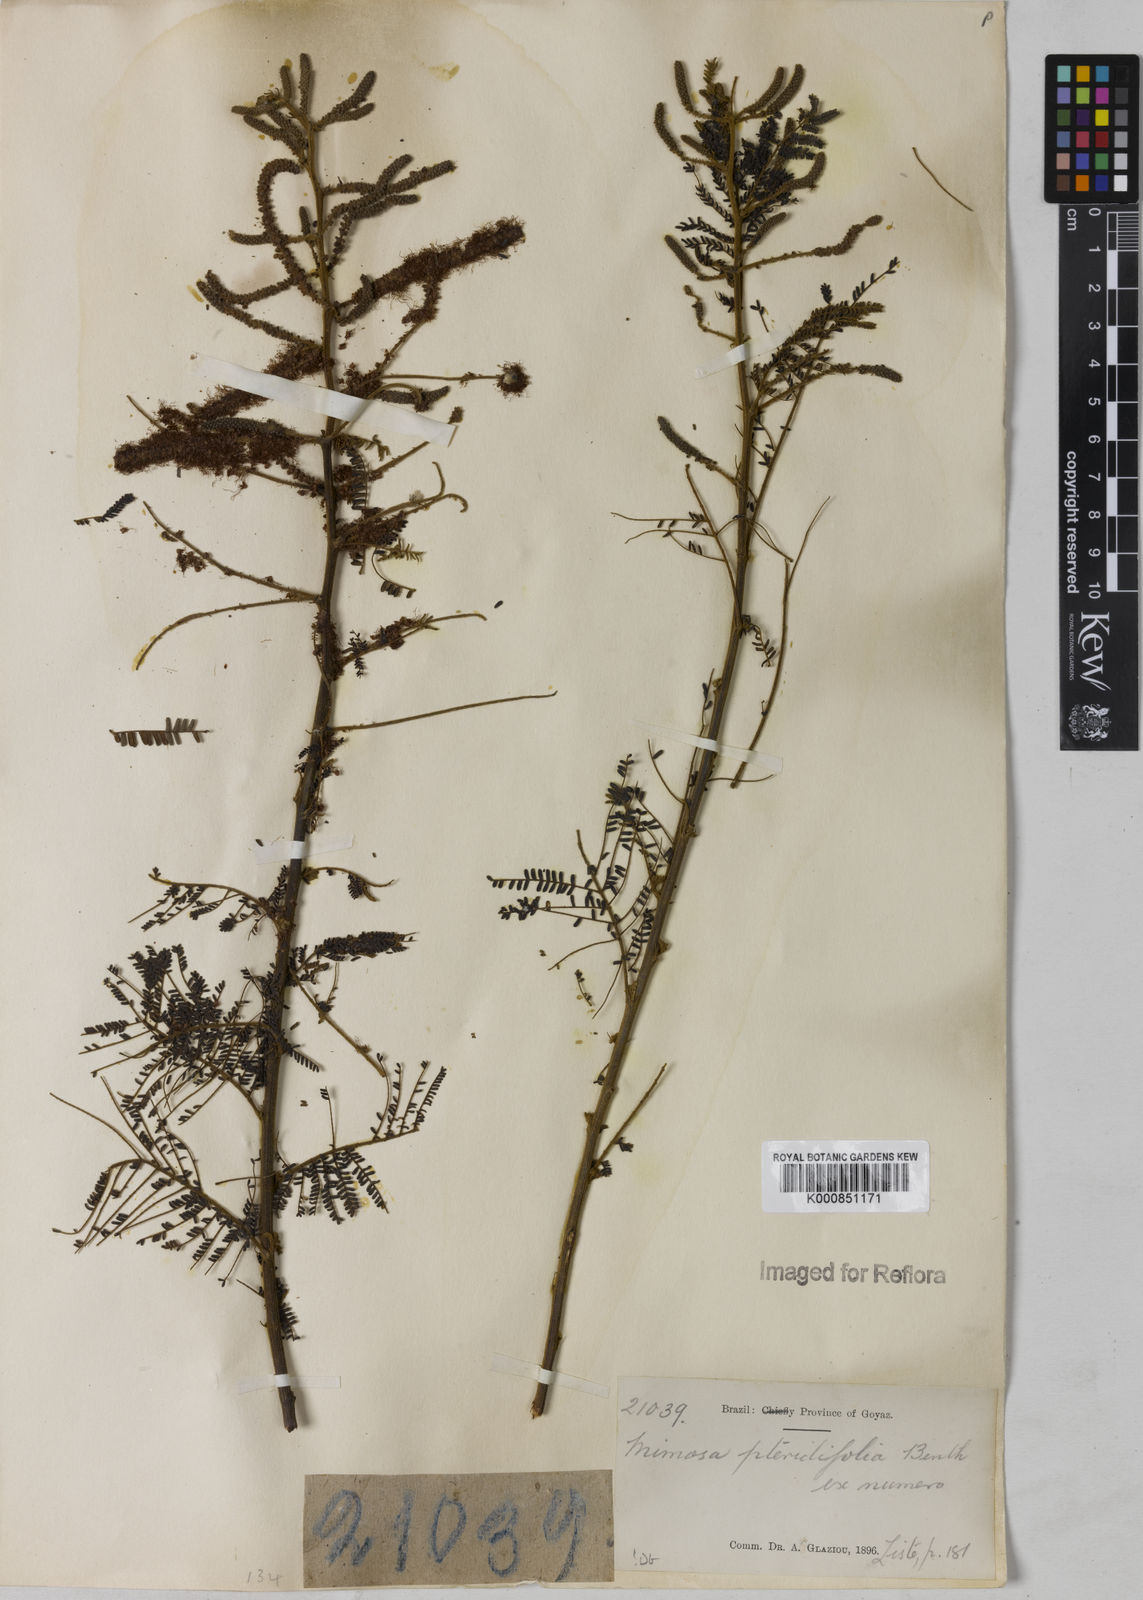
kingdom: Plantae
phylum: Tracheophyta
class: Magnoliopsida
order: Fabales
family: Fabaceae
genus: Mimosa
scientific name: Mimosa pteridifolia
